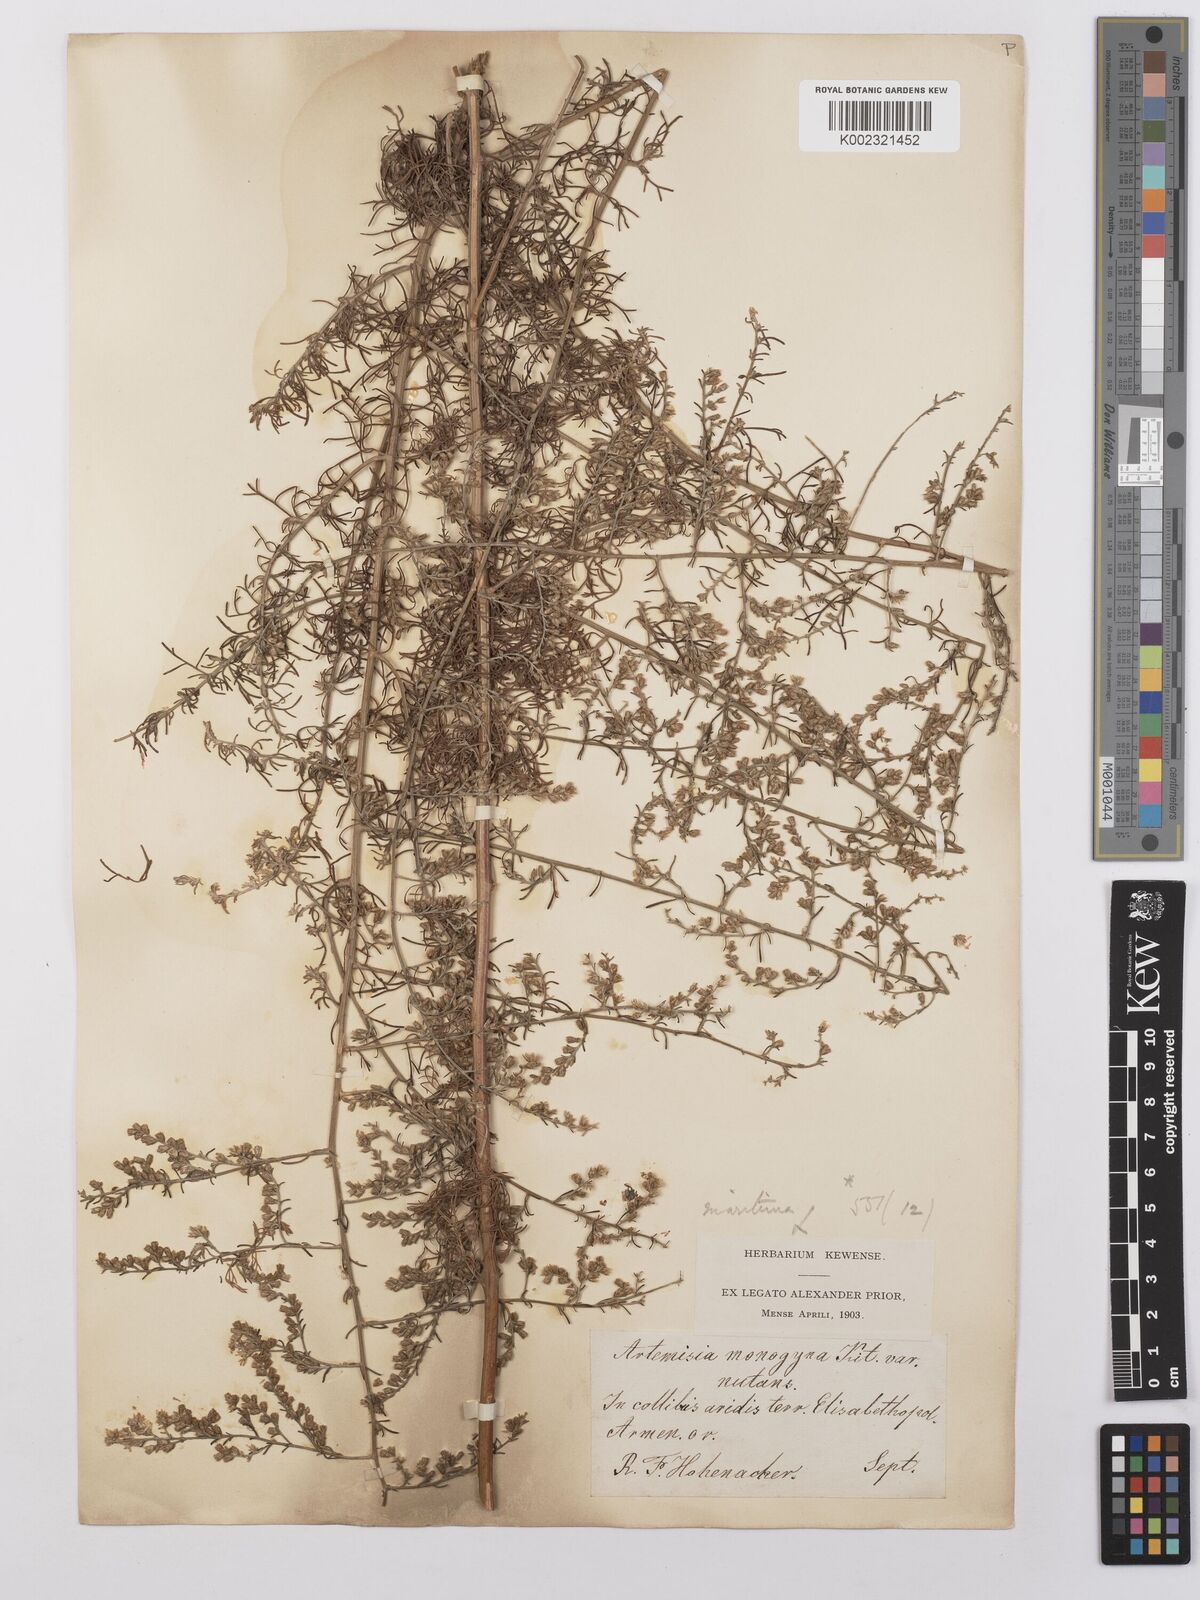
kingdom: Plantae
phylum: Tracheophyta
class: Magnoliopsida
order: Asterales
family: Asteraceae
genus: Artemisia
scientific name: Artemisia nutans
